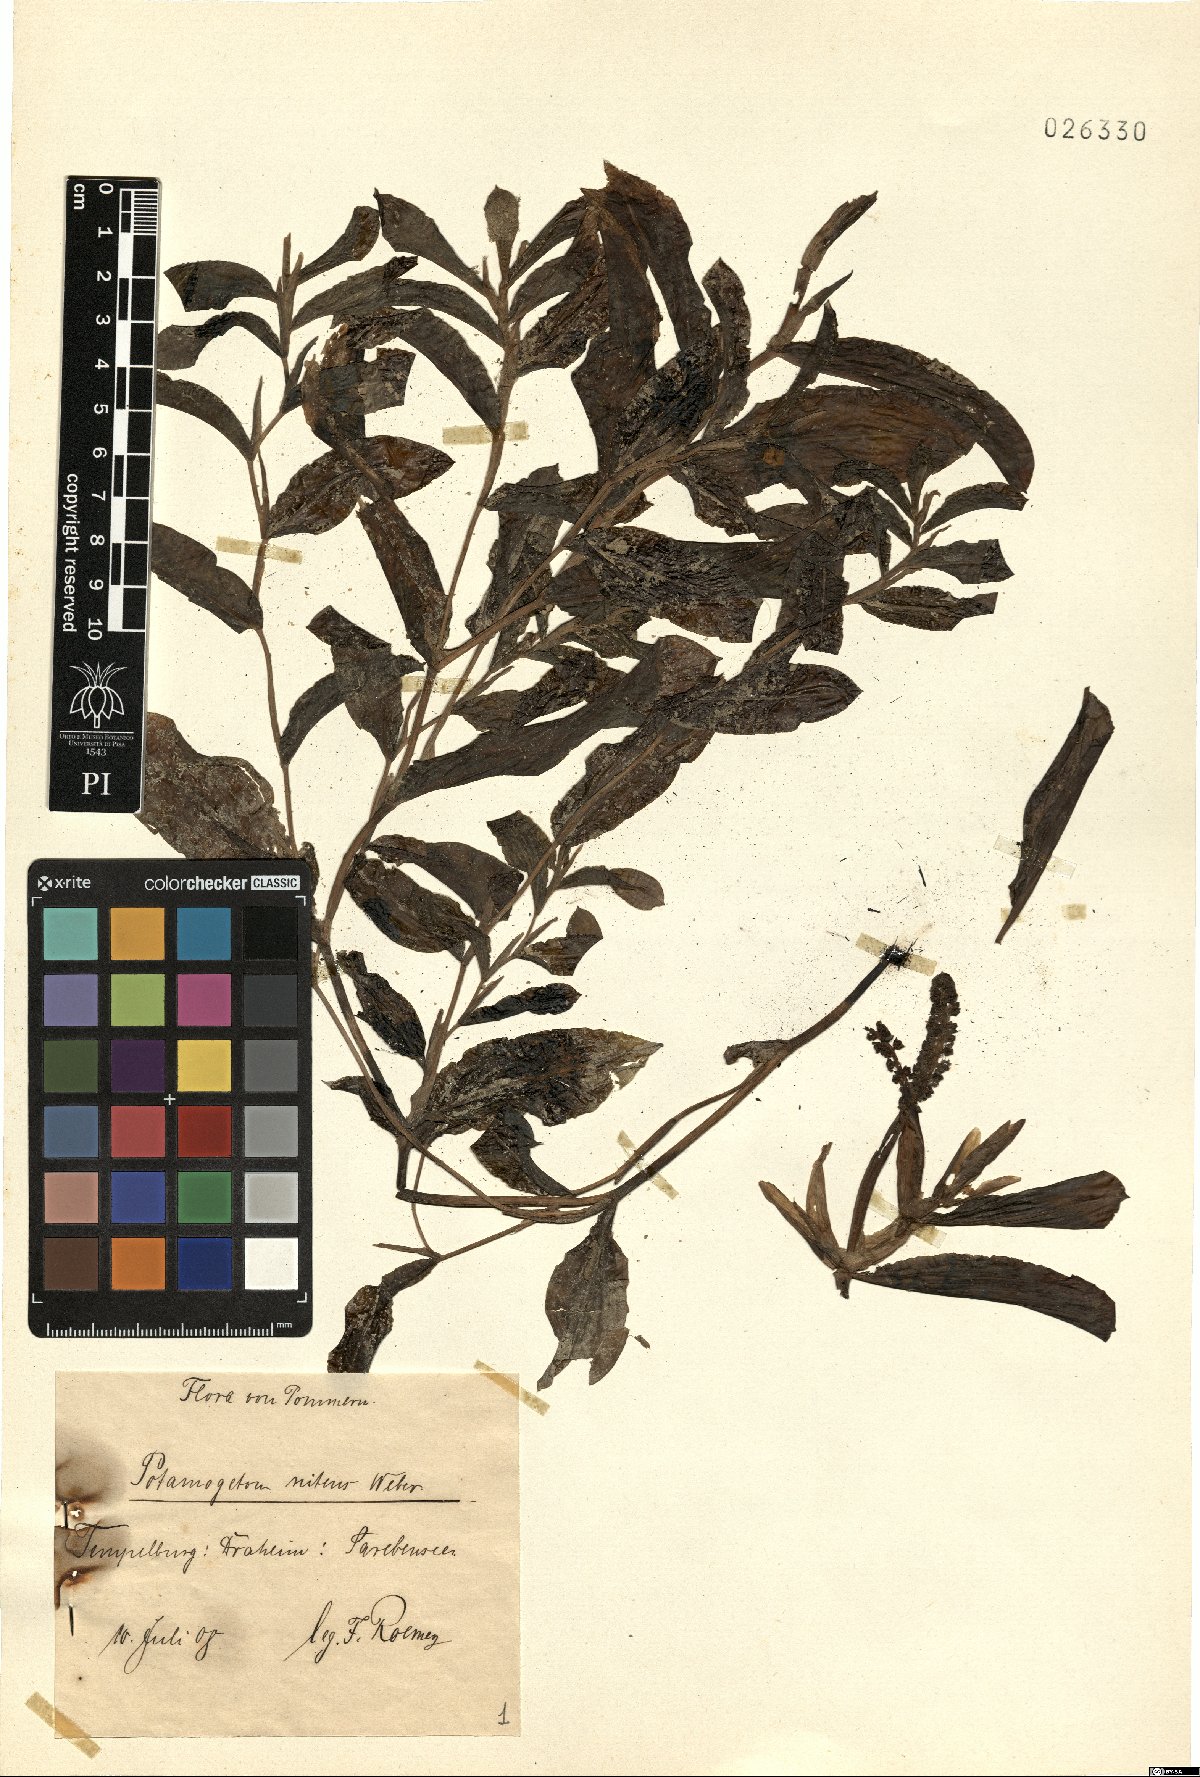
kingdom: Plantae
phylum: Tracheophyta
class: Liliopsida
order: Alismatales
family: Potamogetonaceae
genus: Potamogeton
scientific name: Potamogeton nitens
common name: Pondweed
